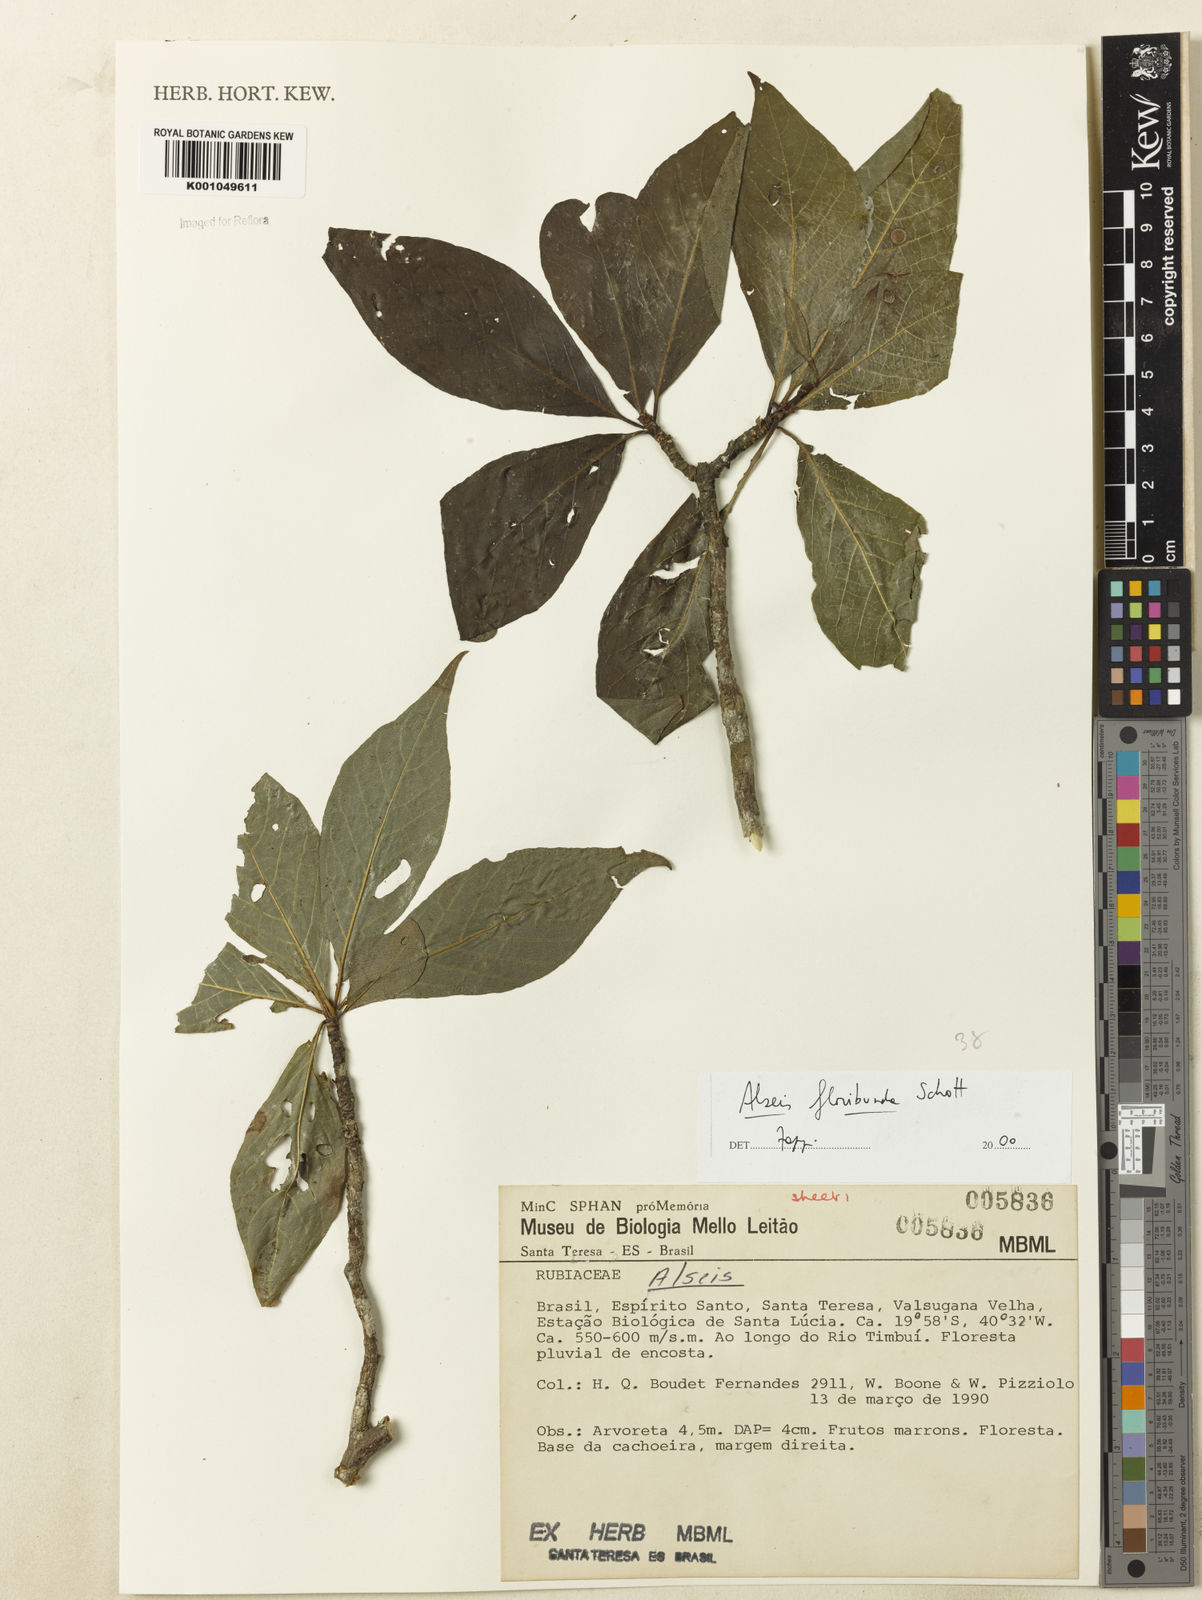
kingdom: Plantae
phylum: Tracheophyta
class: Magnoliopsida
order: Gentianales
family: Rubiaceae
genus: Alseis
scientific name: Alseis floribunda
